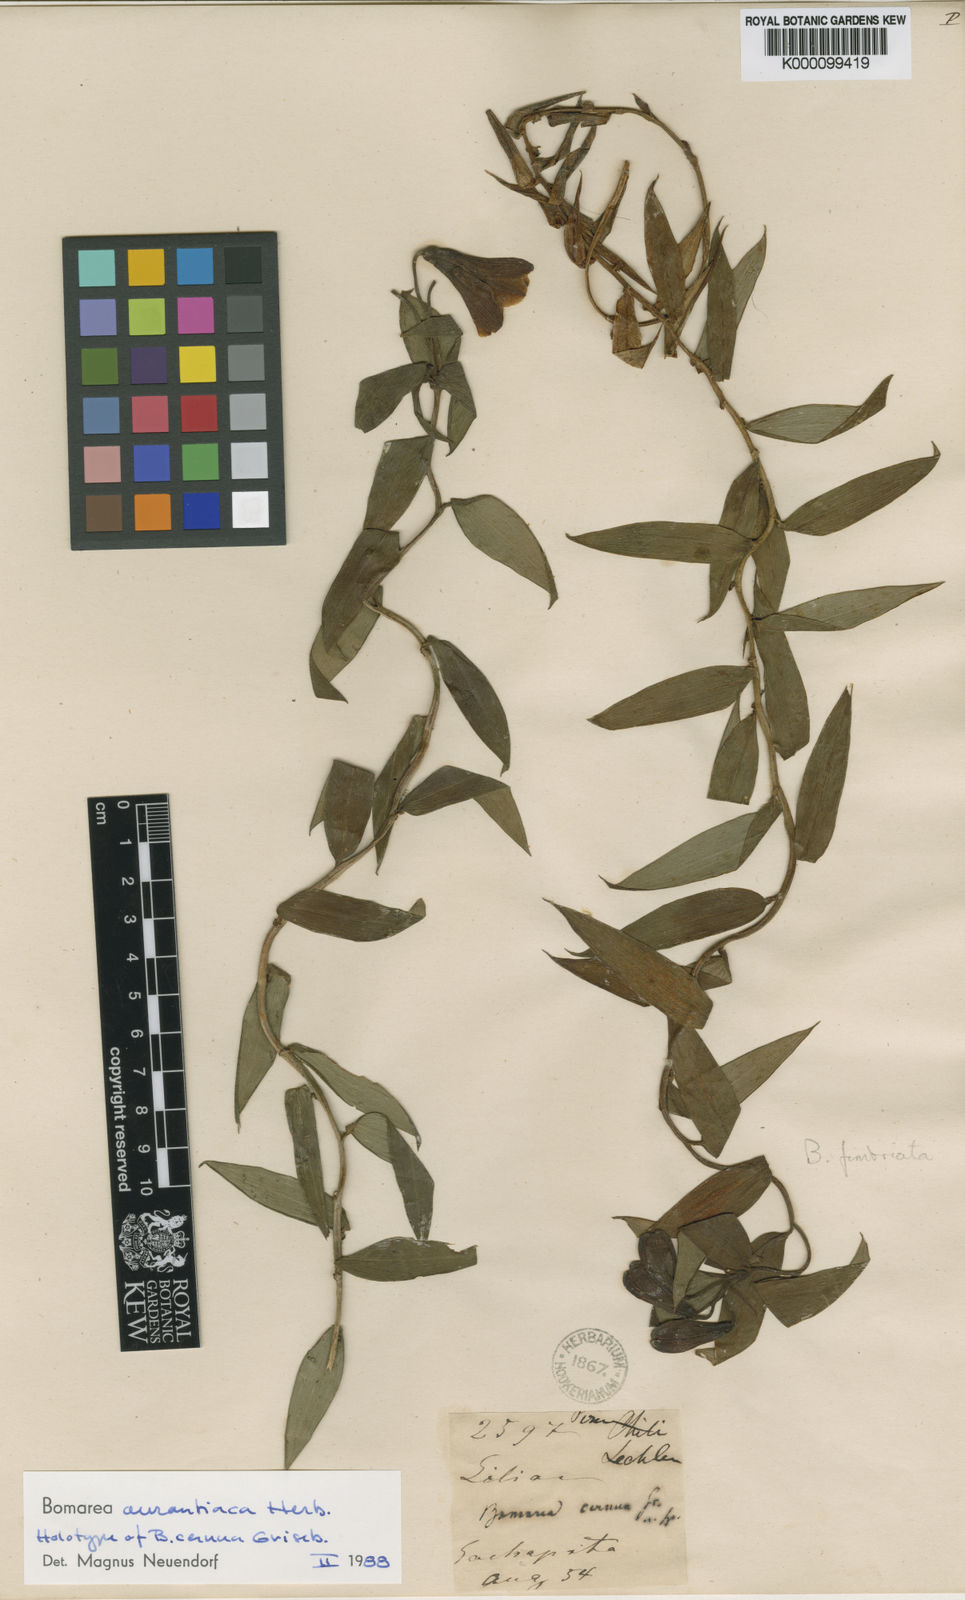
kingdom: Plantae
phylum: Tracheophyta
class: Liliopsida
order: Liliales
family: Alstroemeriaceae
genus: Bomarea
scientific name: Bomarea aurantiaca
